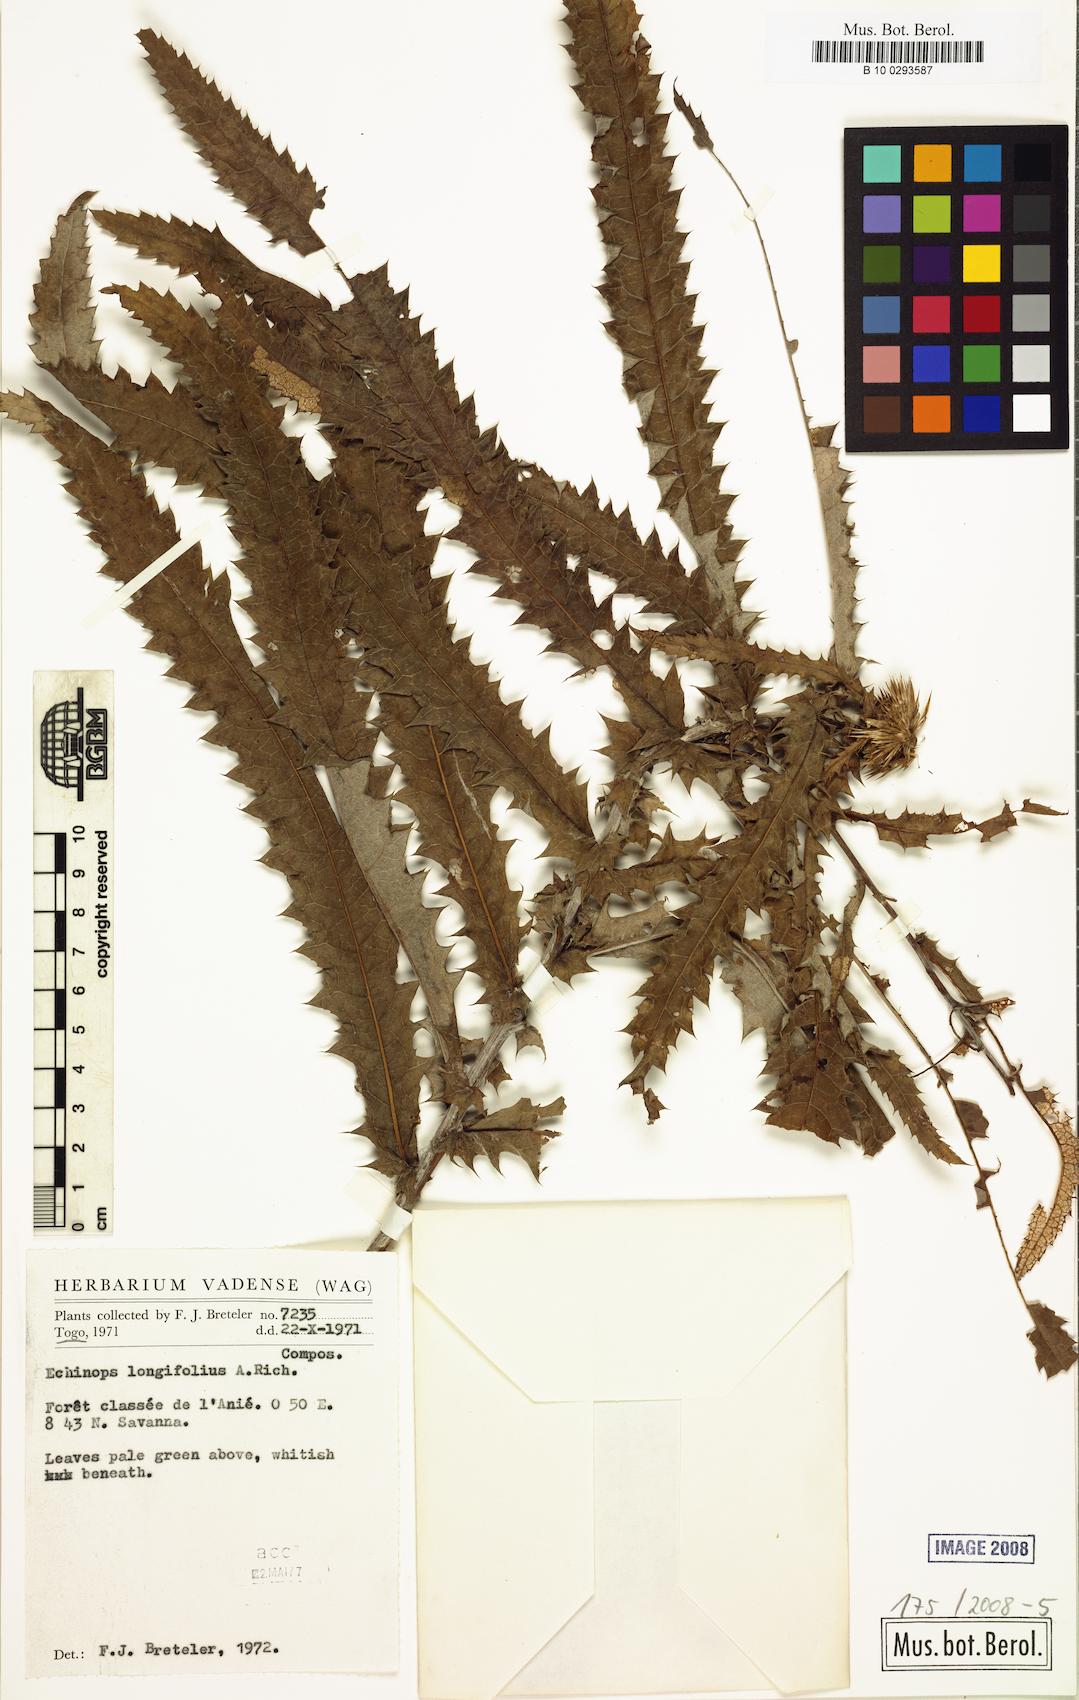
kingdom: Plantae
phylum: Tracheophyta
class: Magnoliopsida
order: Asterales
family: Asteraceae
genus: Echinops
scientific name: Echinops longifolius
